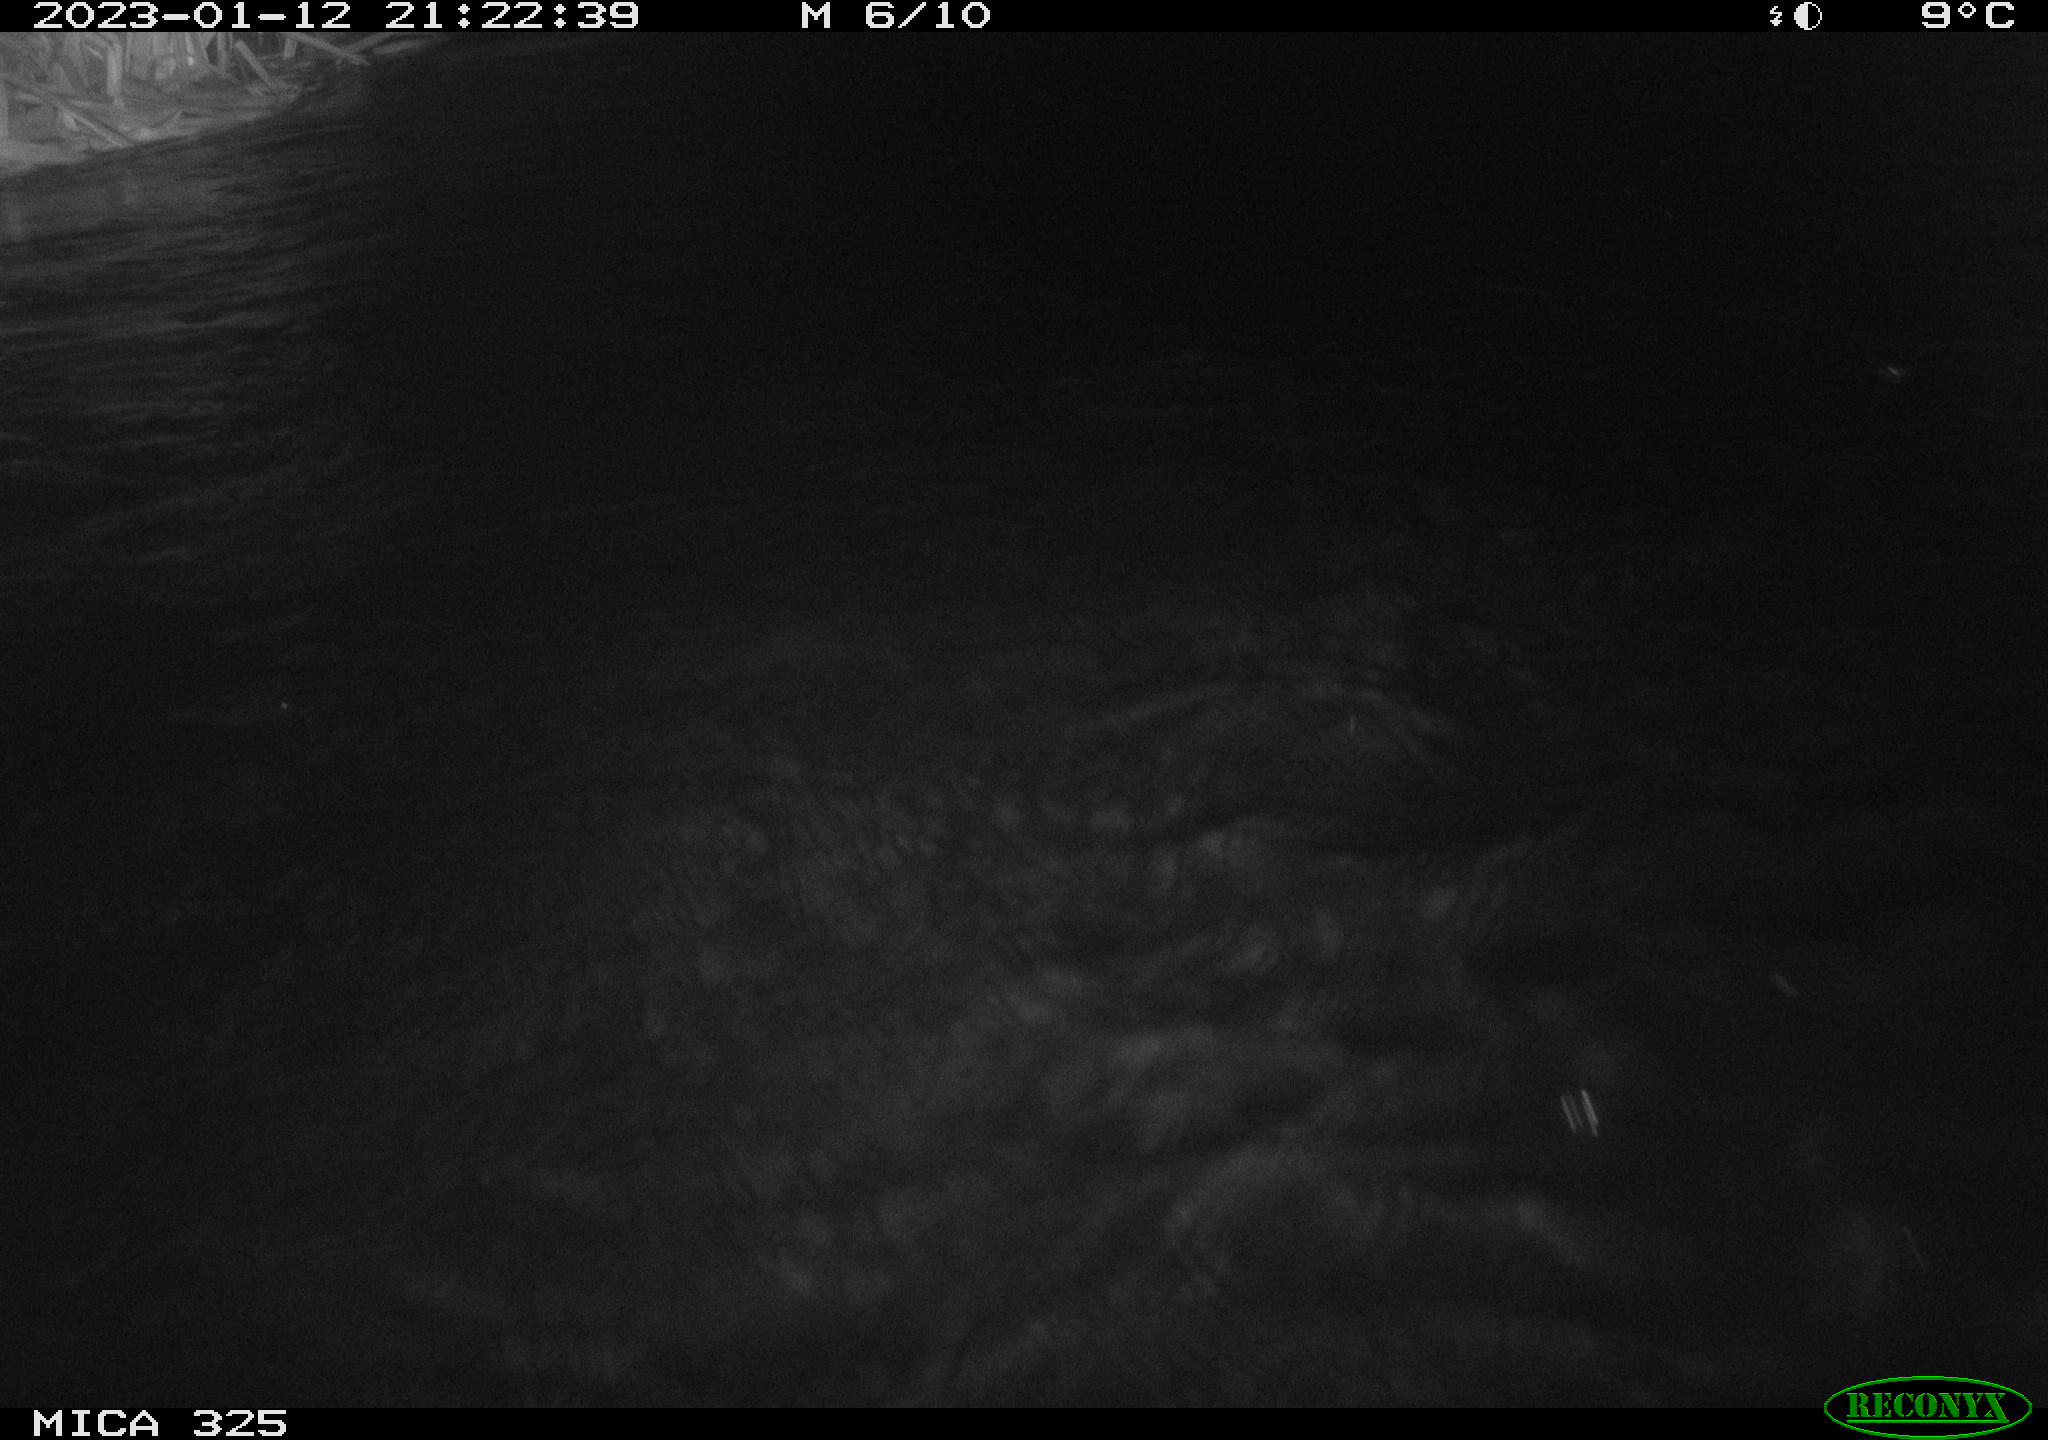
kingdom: Animalia
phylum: Chordata
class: Mammalia
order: Rodentia
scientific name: Rodentia
